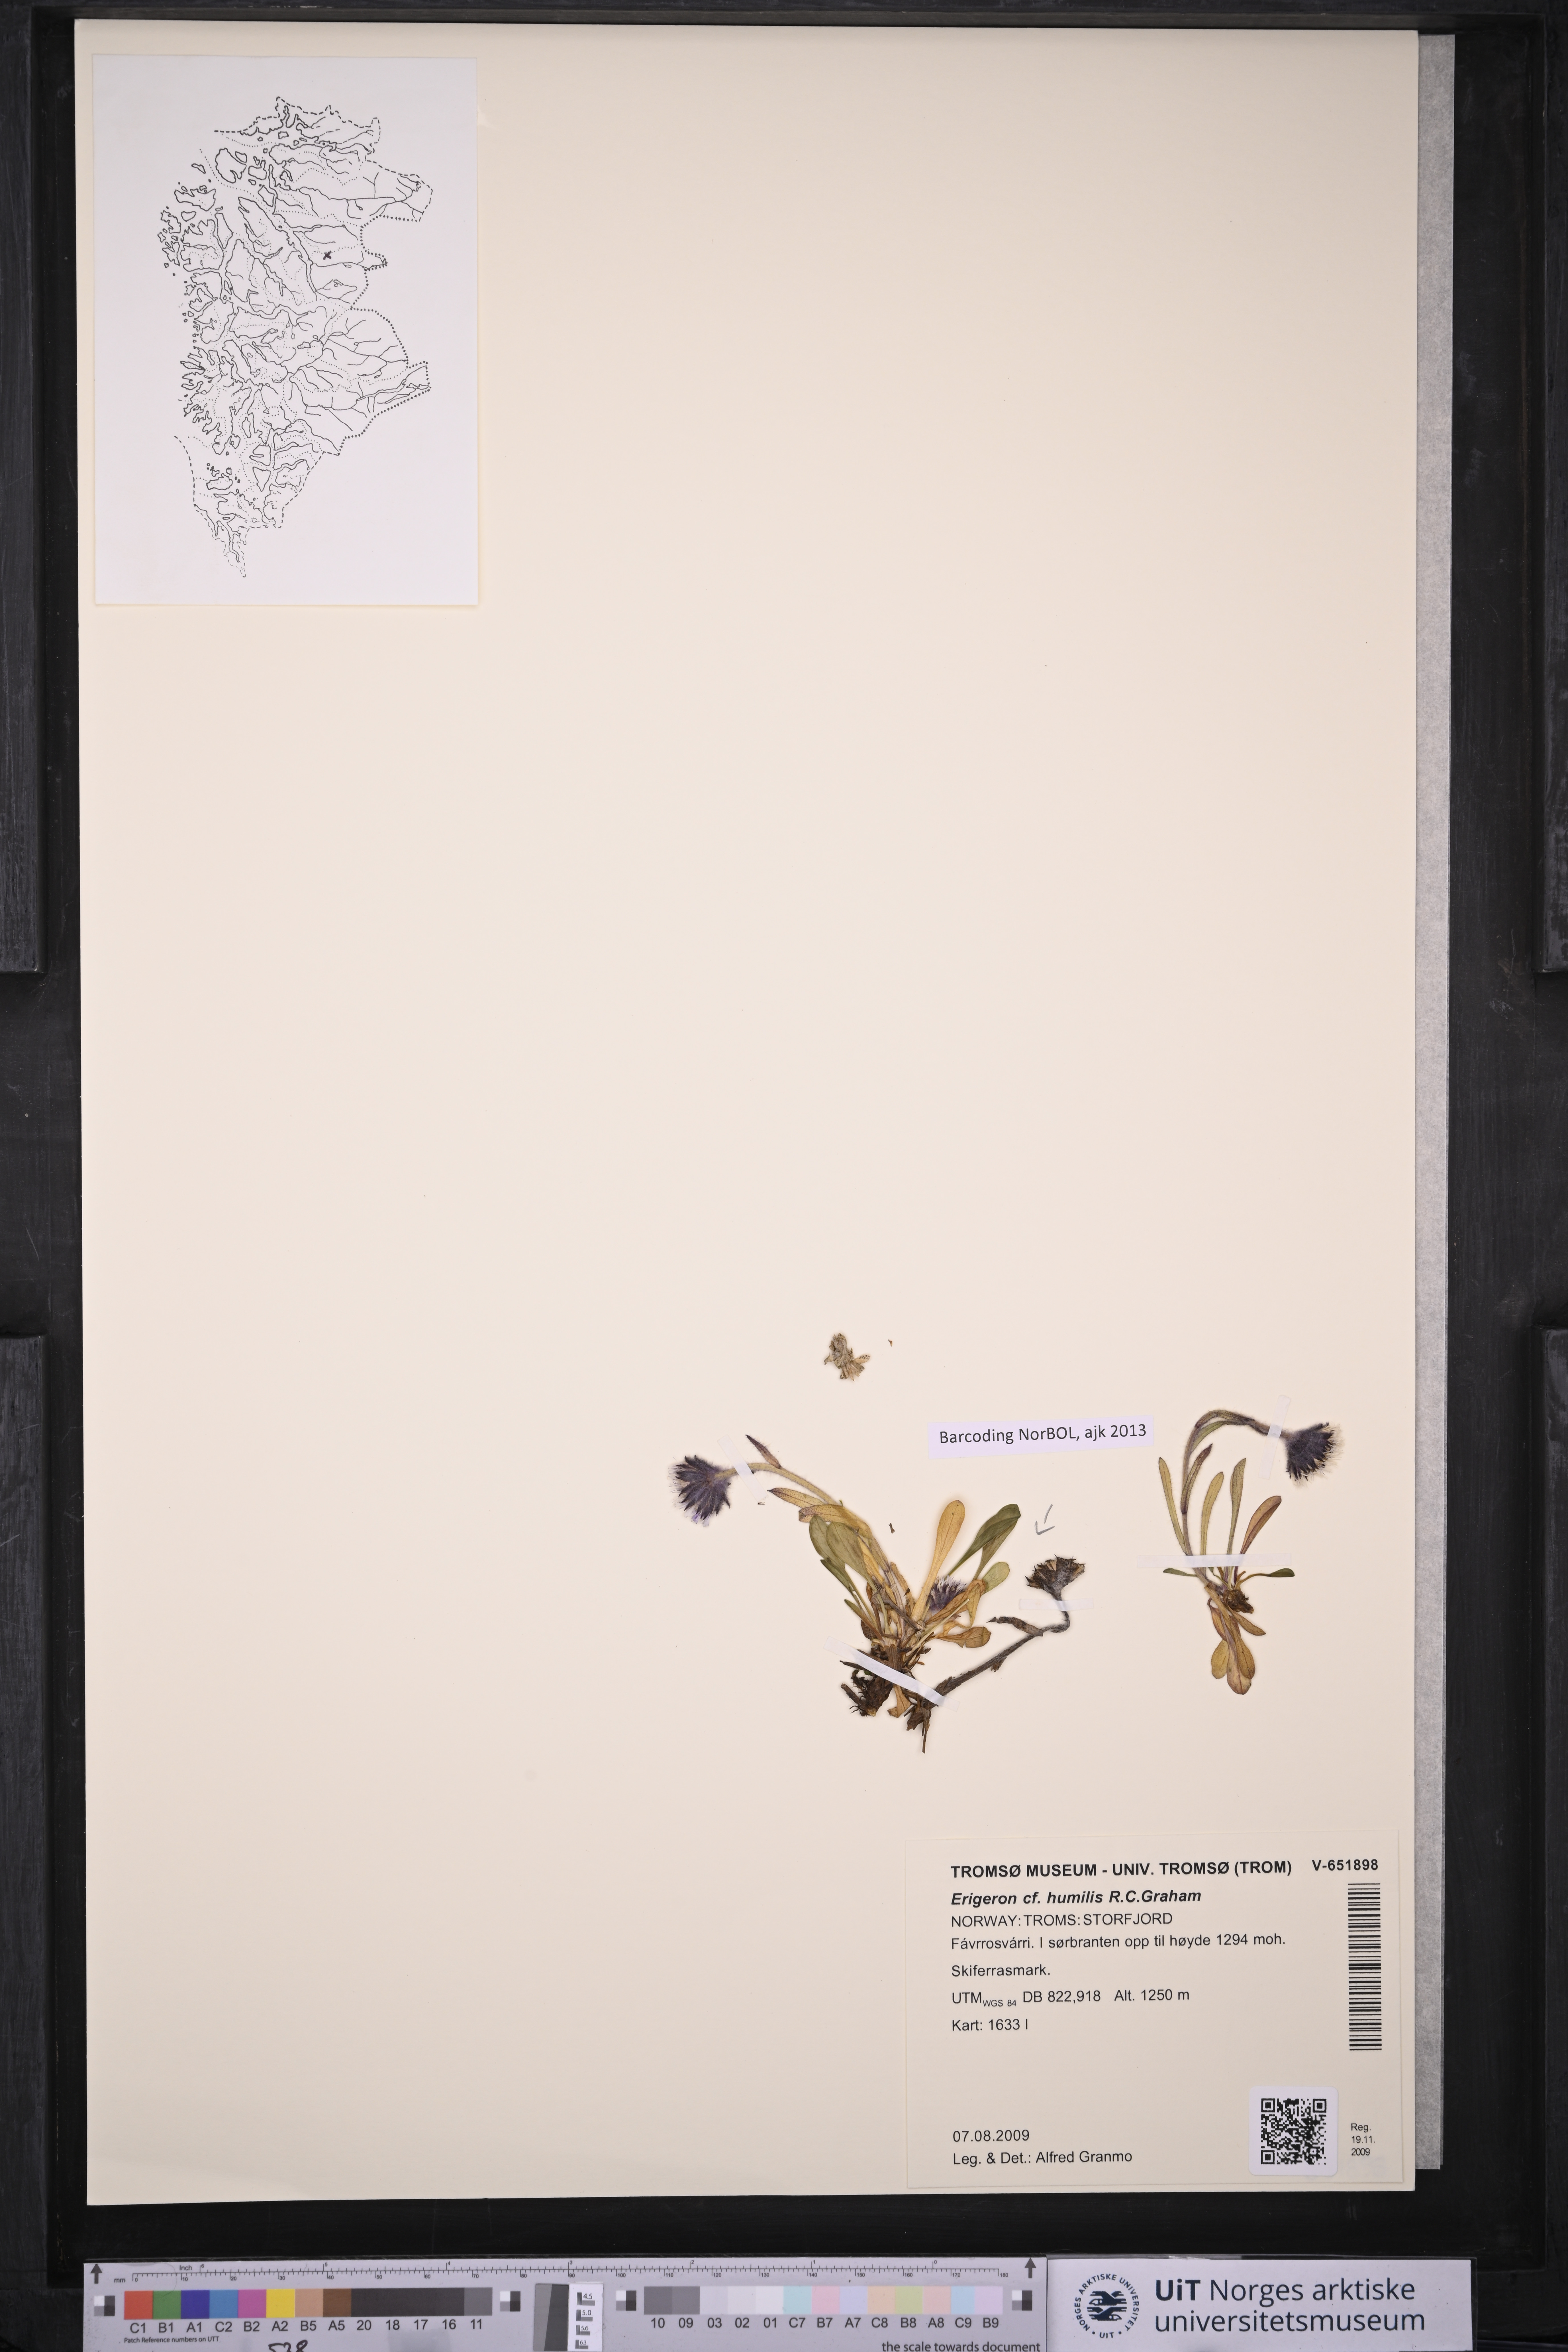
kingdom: Plantae
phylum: Tracheophyta
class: Magnoliopsida
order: Asterales
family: Asteraceae
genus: Erigeron
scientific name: Erigeron humilis
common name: Arctic-alpine fleabane
